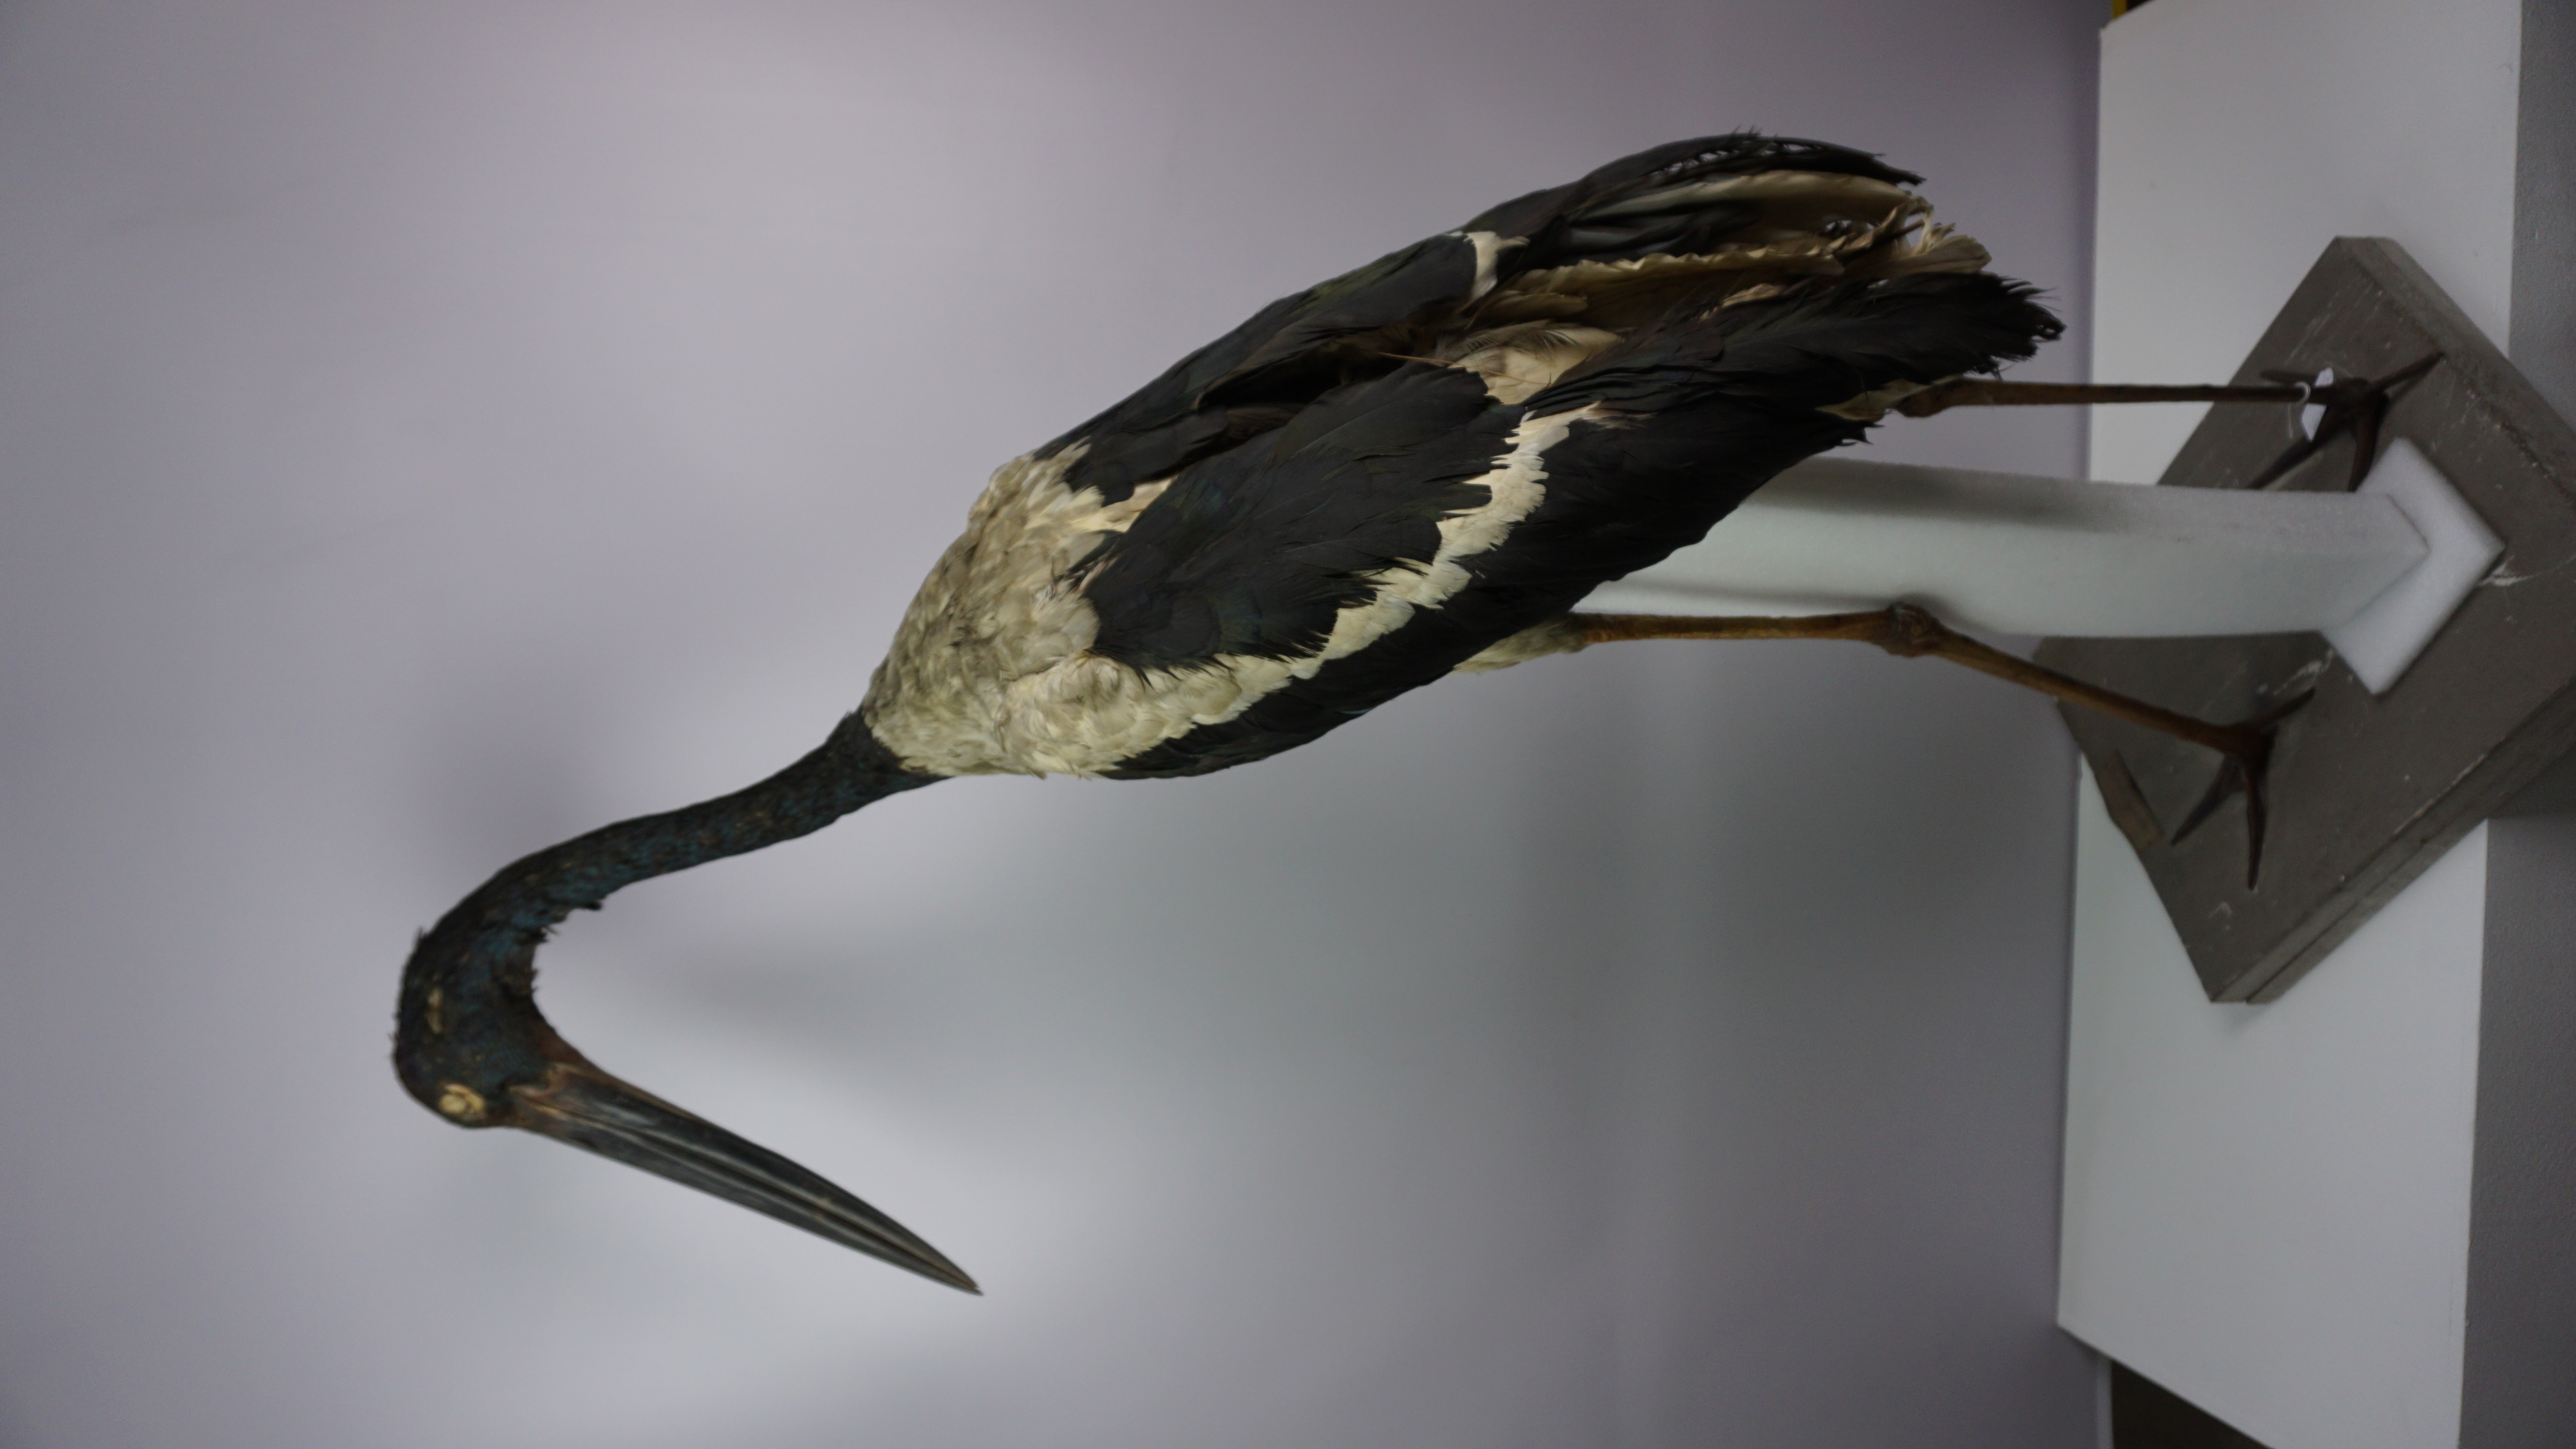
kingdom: Animalia
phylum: Chordata
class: Aves
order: Ciconiiformes
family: Ciconiidae
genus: Ephippiorhynchus
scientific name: Ephippiorhynchus asiaticus
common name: Black-necked stork
